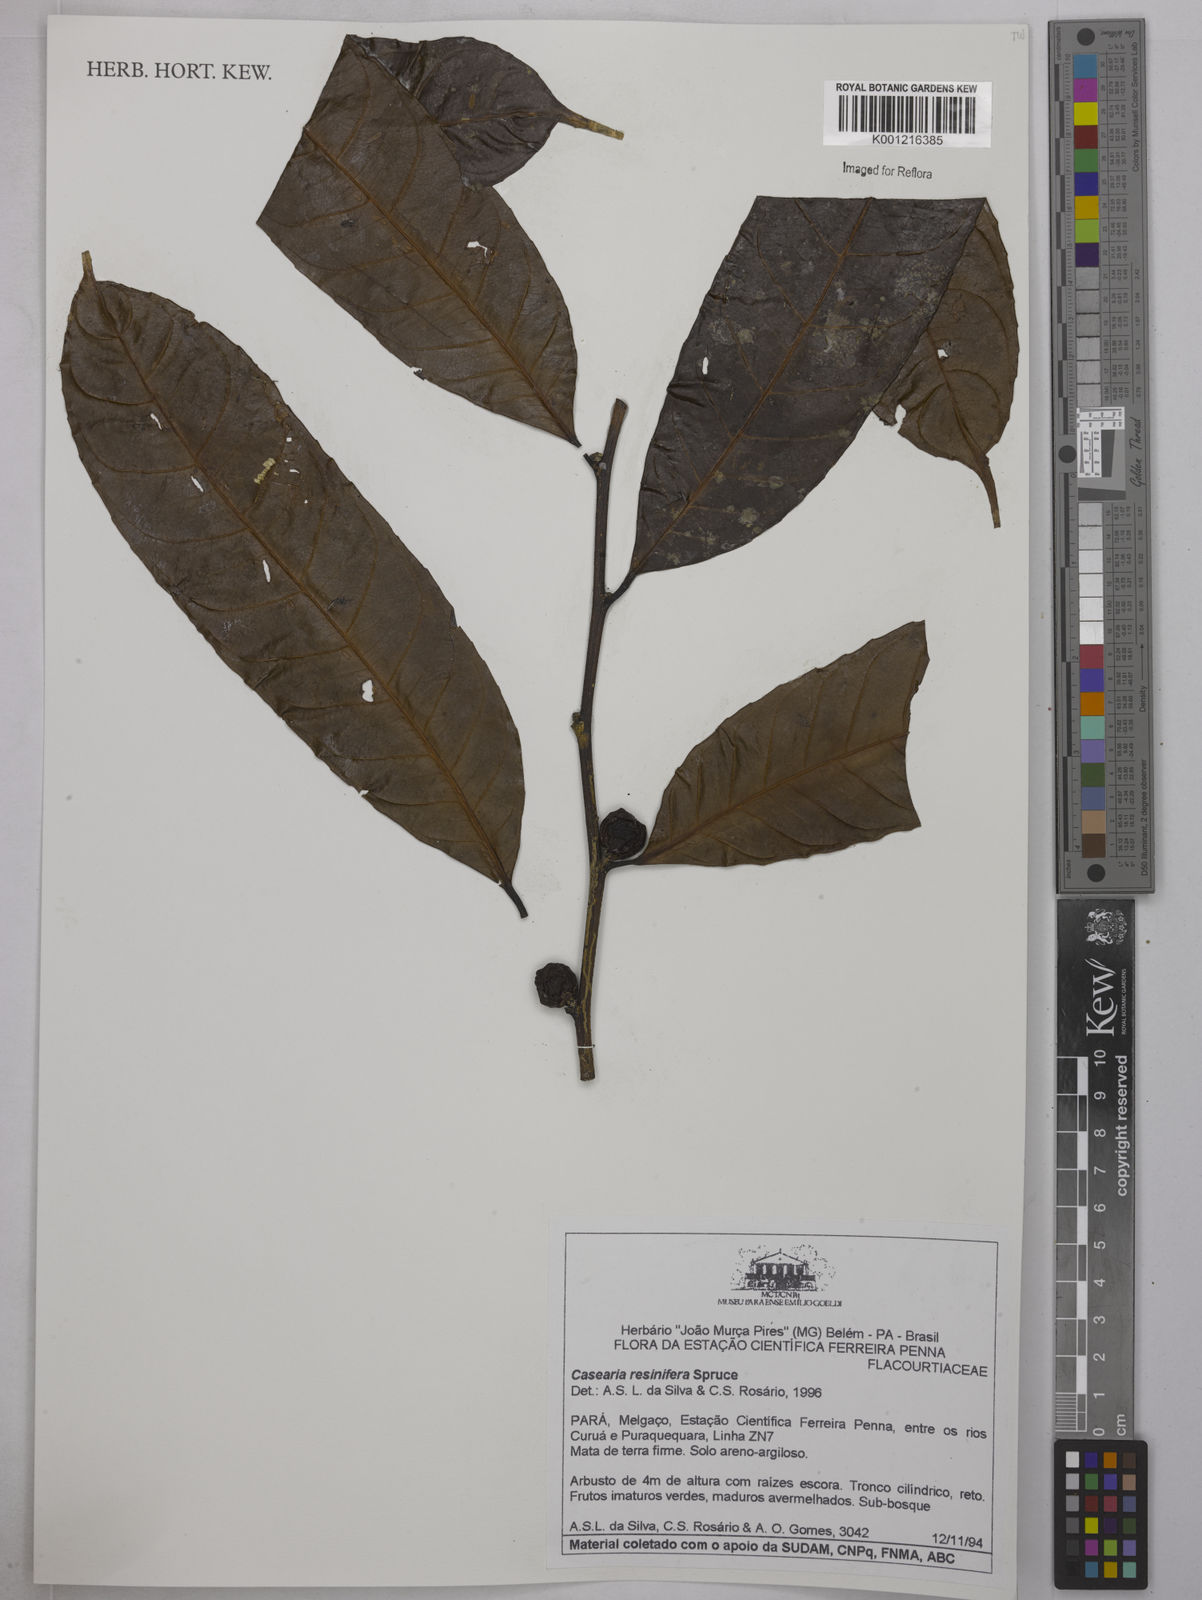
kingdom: Plantae
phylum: Tracheophyta
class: Magnoliopsida
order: Malpighiales
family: Salicaceae
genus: Casearia
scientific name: Casearia resinifera
